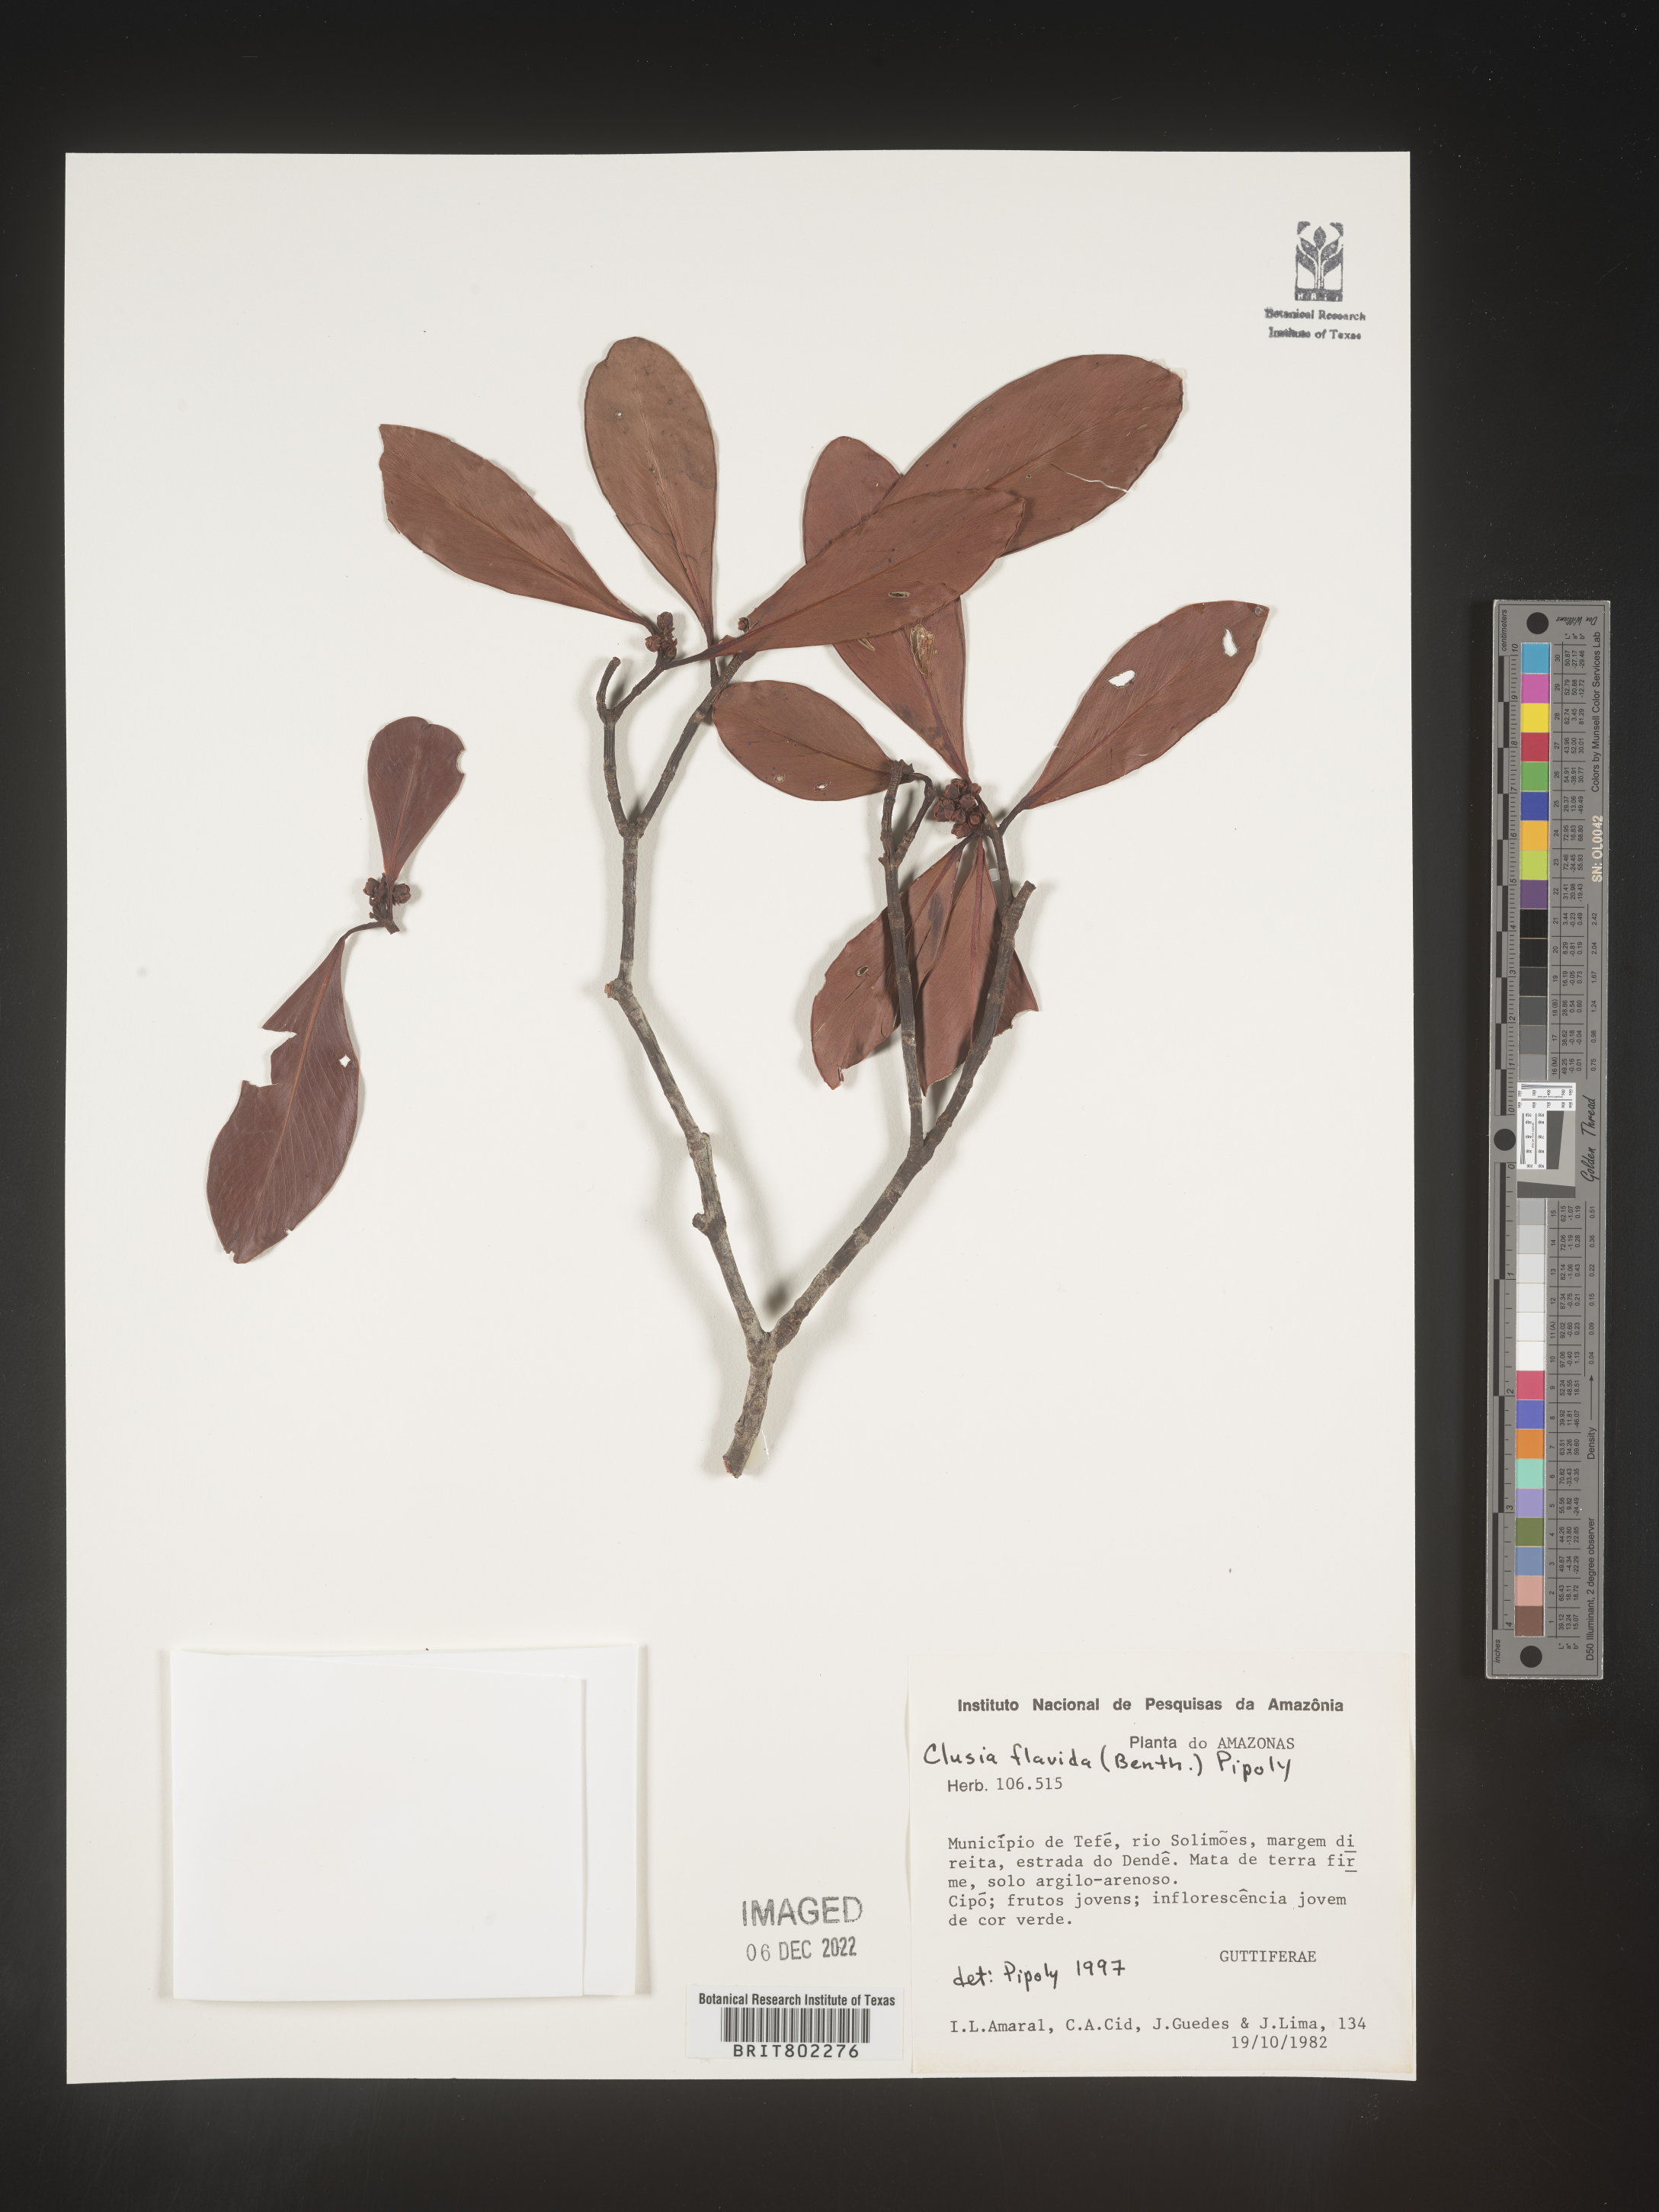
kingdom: Plantae
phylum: Tracheophyta
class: Magnoliopsida
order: Malpighiales
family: Clusiaceae
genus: Clusia
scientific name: Clusia flavida
